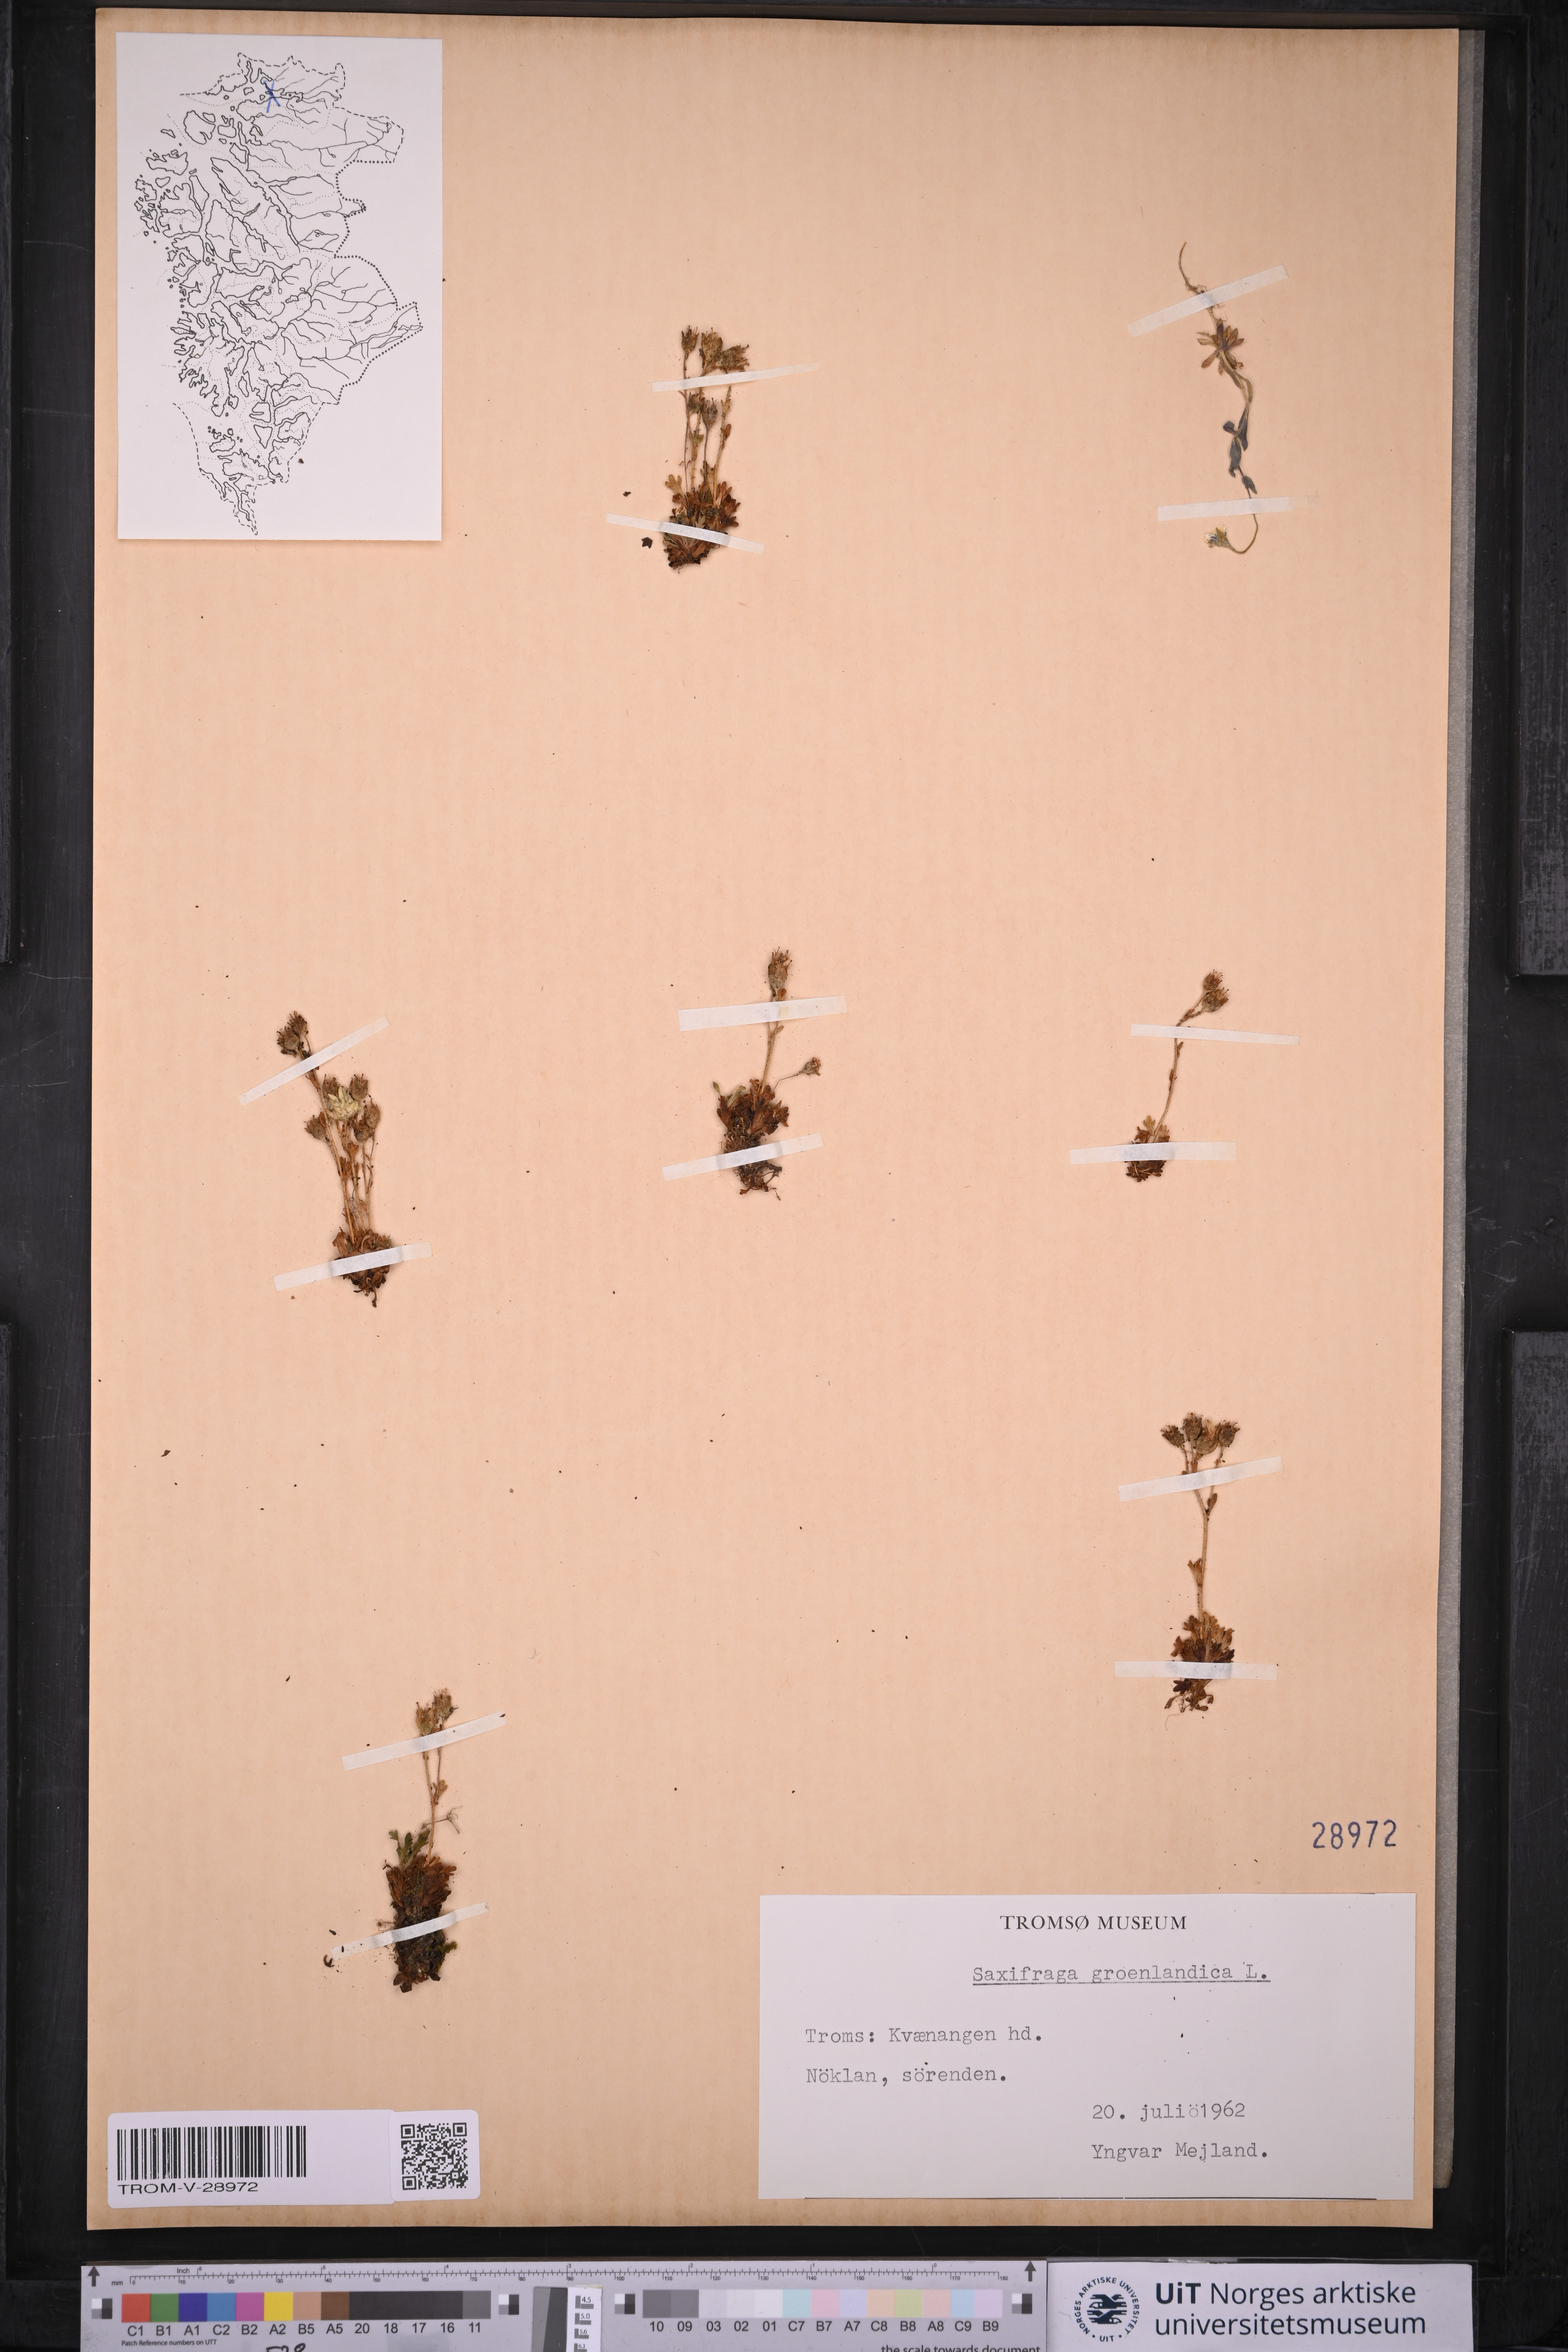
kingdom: Plantae
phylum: Tracheophyta
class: Magnoliopsida
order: Saxifragales
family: Saxifragaceae
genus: Saxifraga
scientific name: Saxifraga cespitosa
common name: Tufted saxifrage
